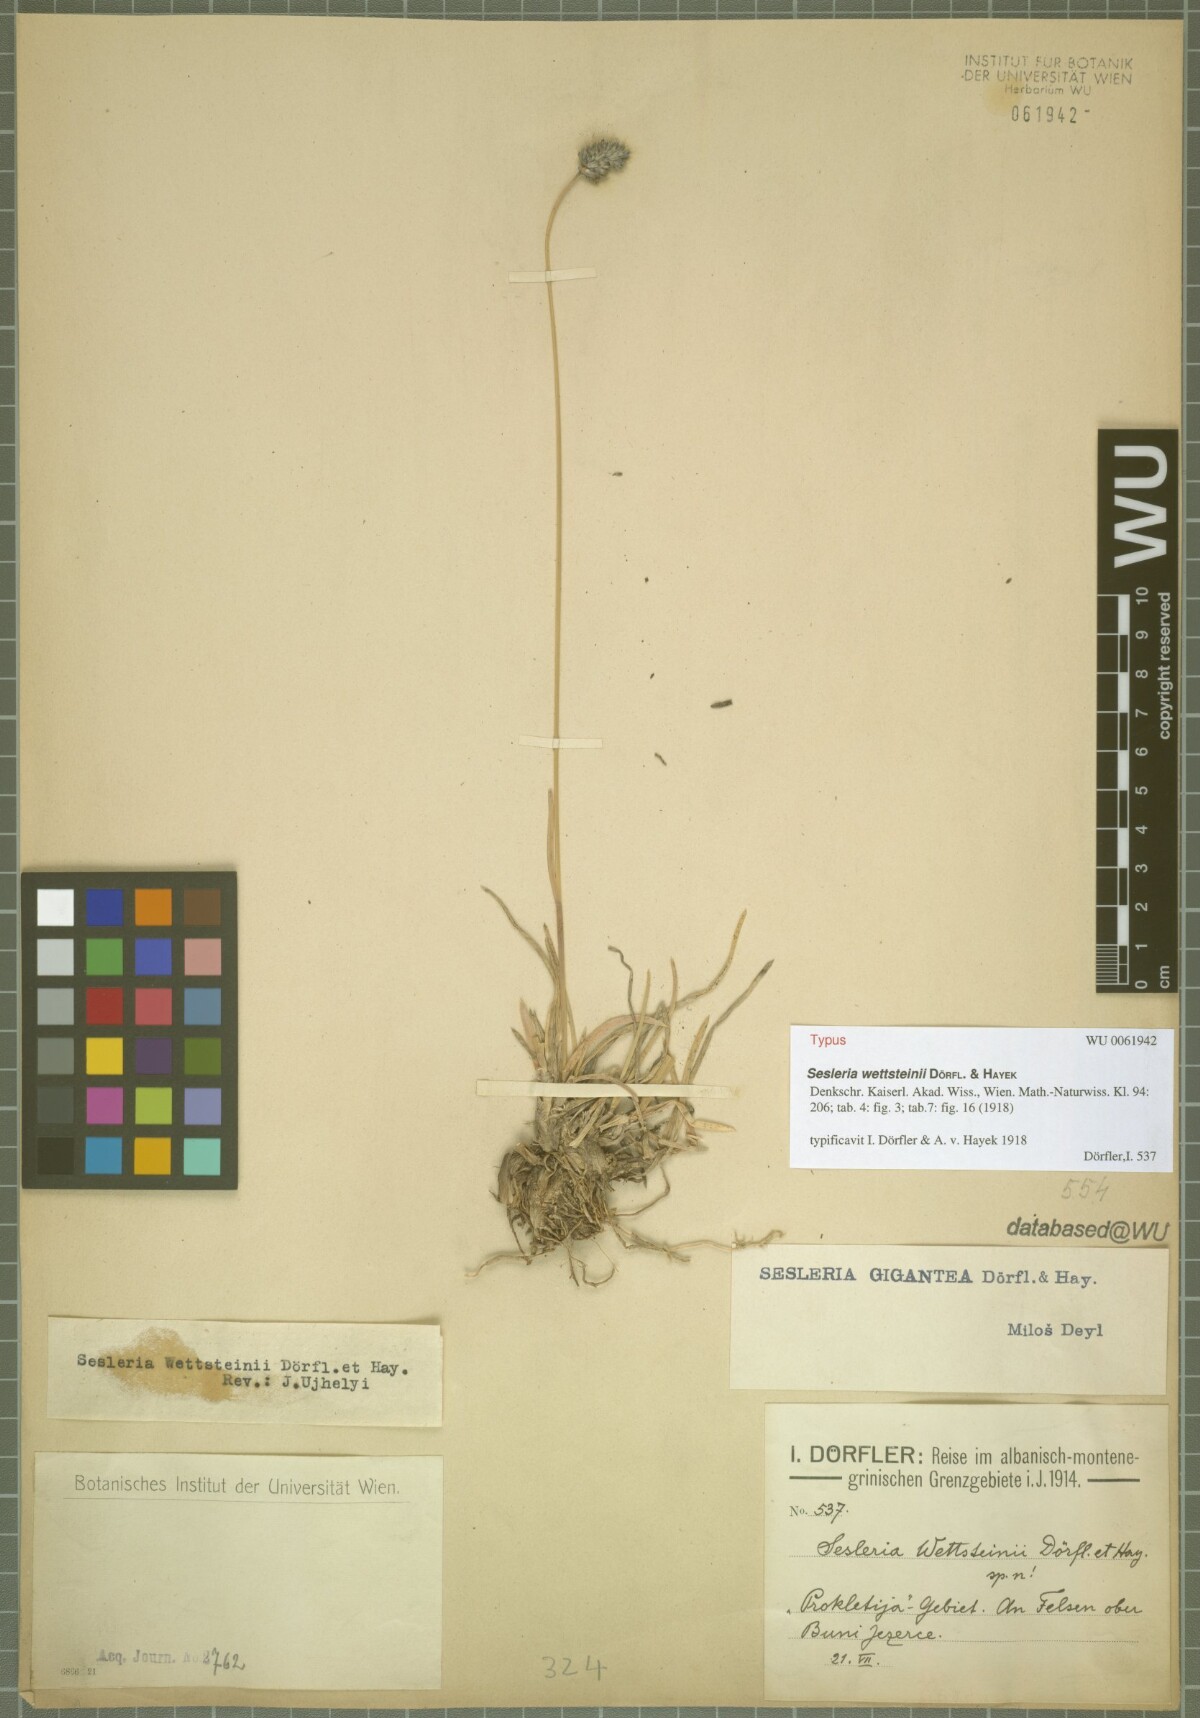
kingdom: Plantae
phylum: Tracheophyta
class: Liliopsida
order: Poales
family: Poaceae
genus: Sesleria
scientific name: Sesleria wettsteinii
